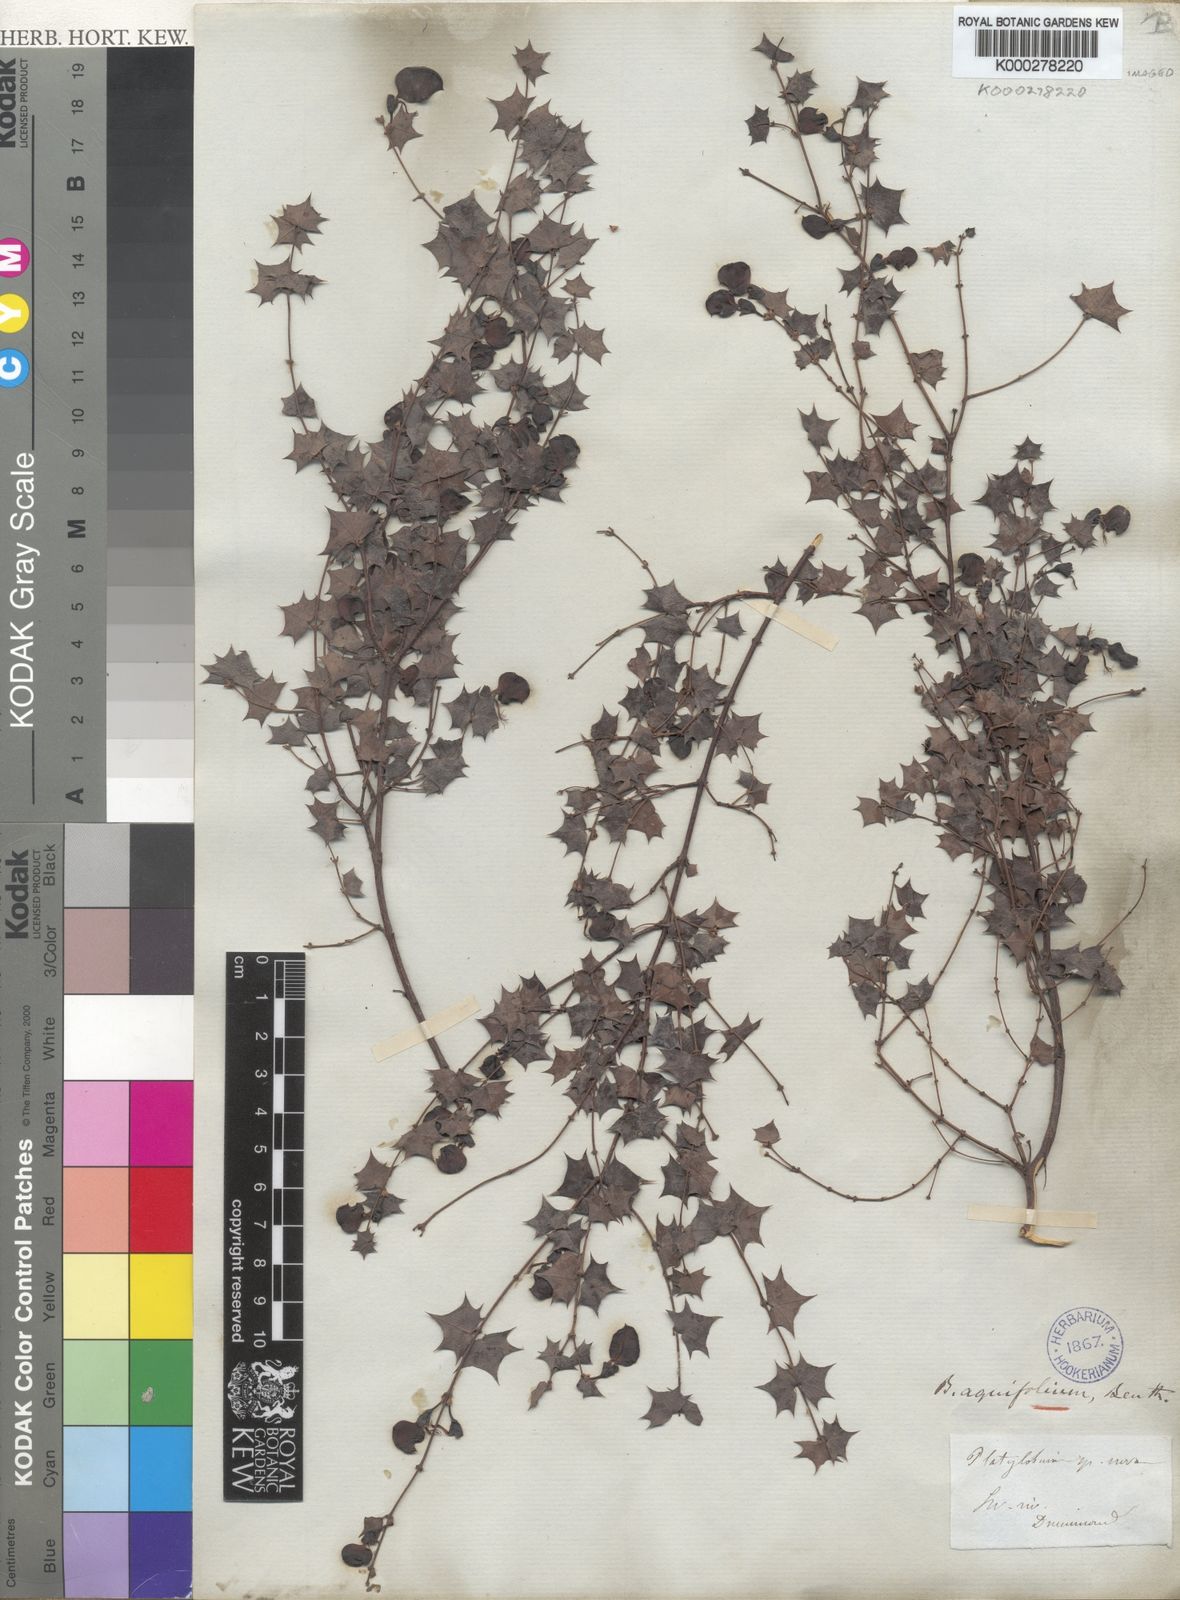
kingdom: Plantae
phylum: Tracheophyta
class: Magnoliopsida
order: Fabales
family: Fabaceae
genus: Bossiaea
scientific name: Bossiaea aquifolium
